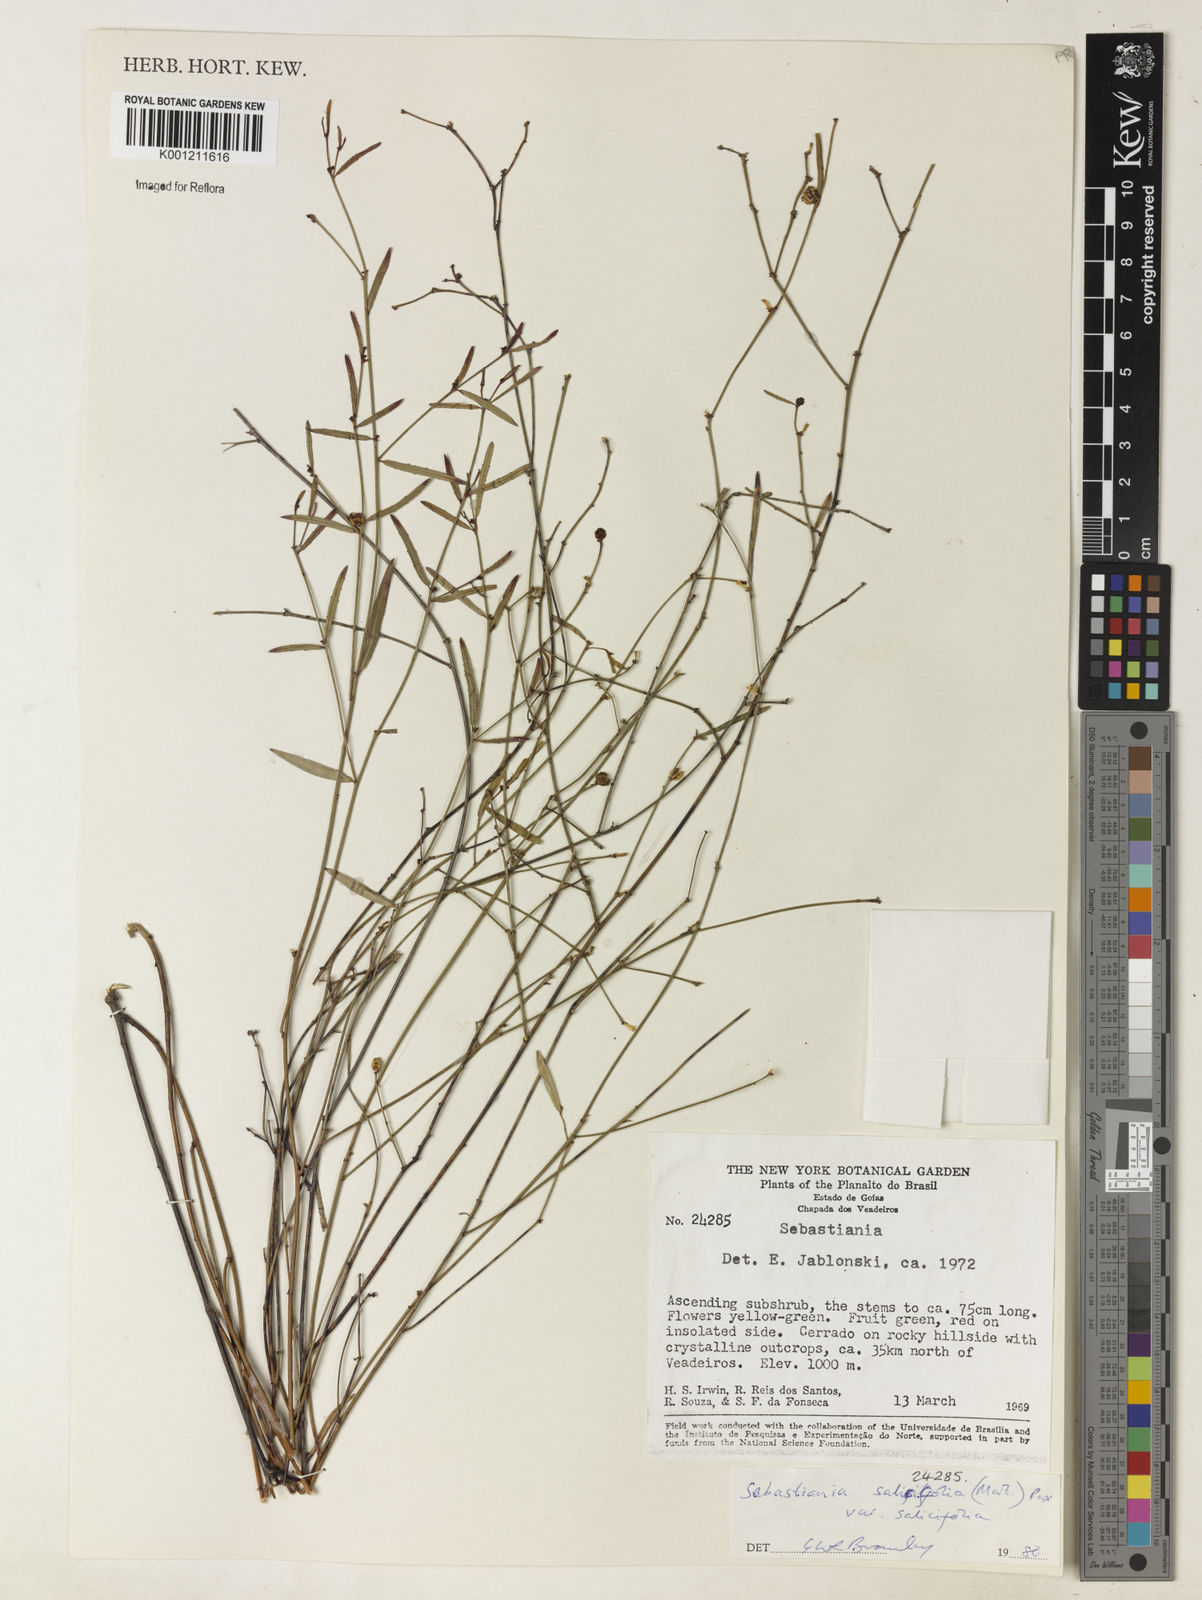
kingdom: Plantae
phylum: Tracheophyta
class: Magnoliopsida
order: Malpighiales
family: Euphorbiaceae
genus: Microstachys
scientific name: Microstachys
